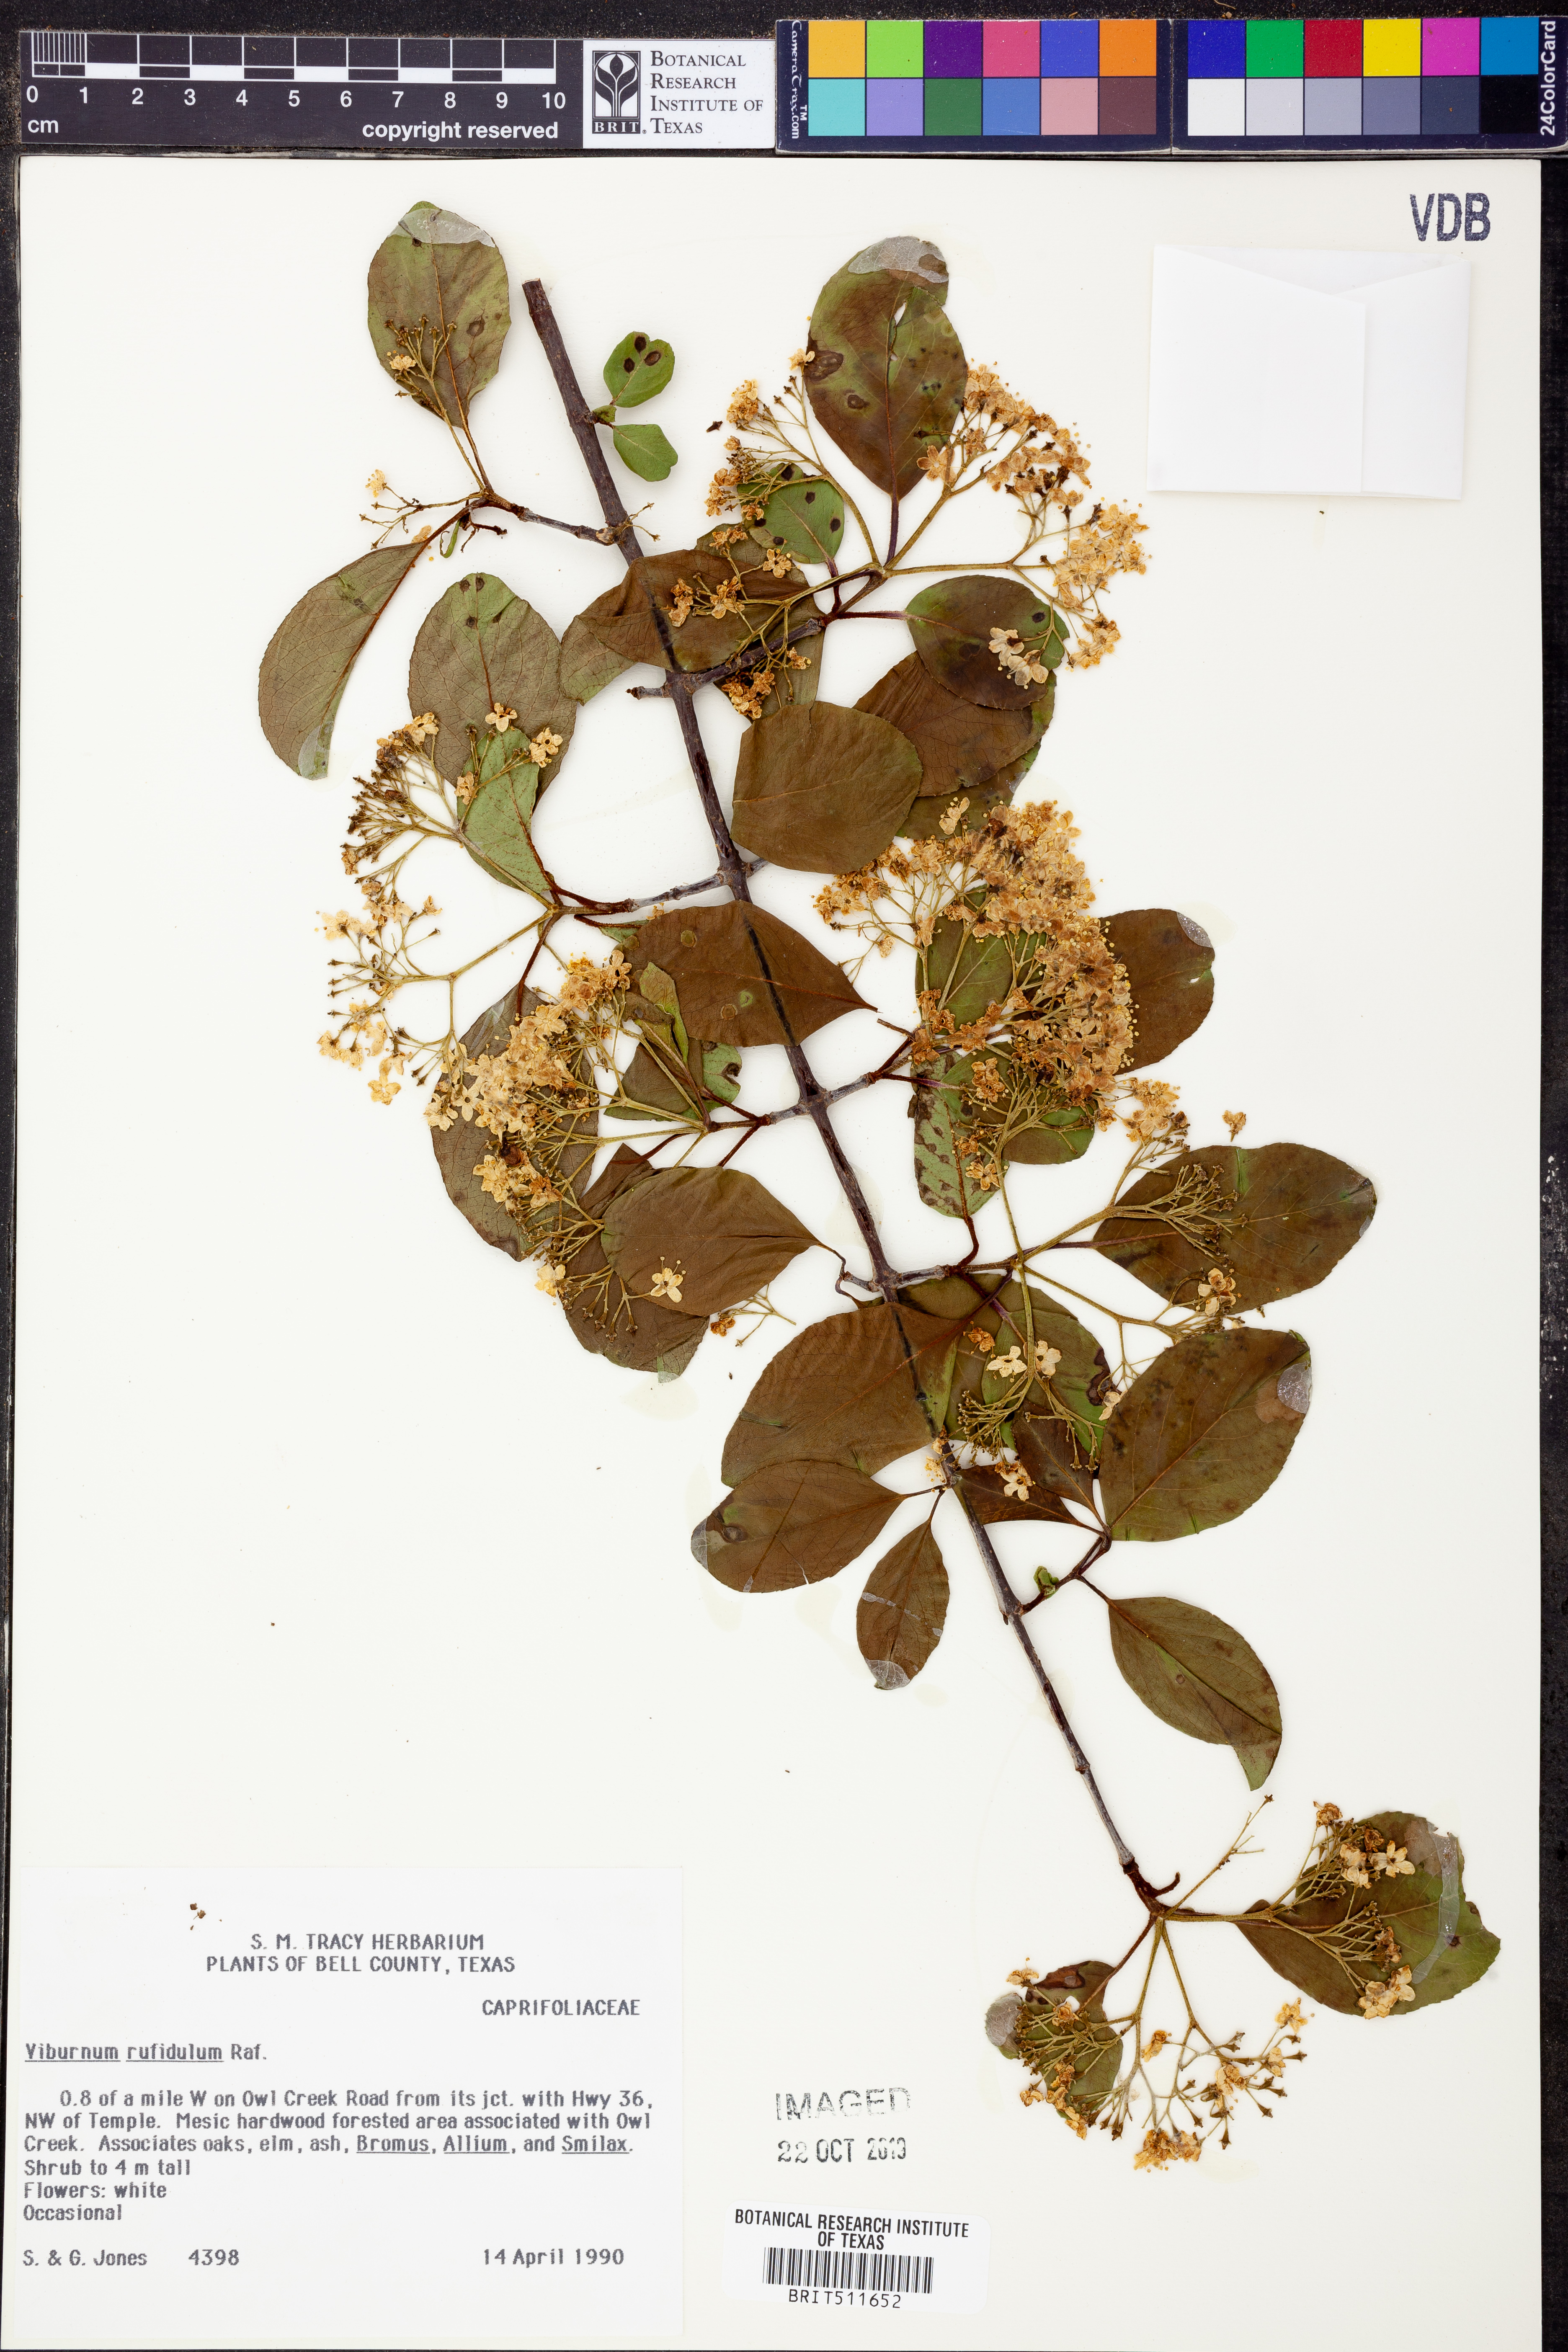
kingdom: Plantae
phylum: Tracheophyta
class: Magnoliopsida
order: Dipsacales
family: Viburnaceae
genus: Viburnum
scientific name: Viburnum rufidulum
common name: Blue haw
